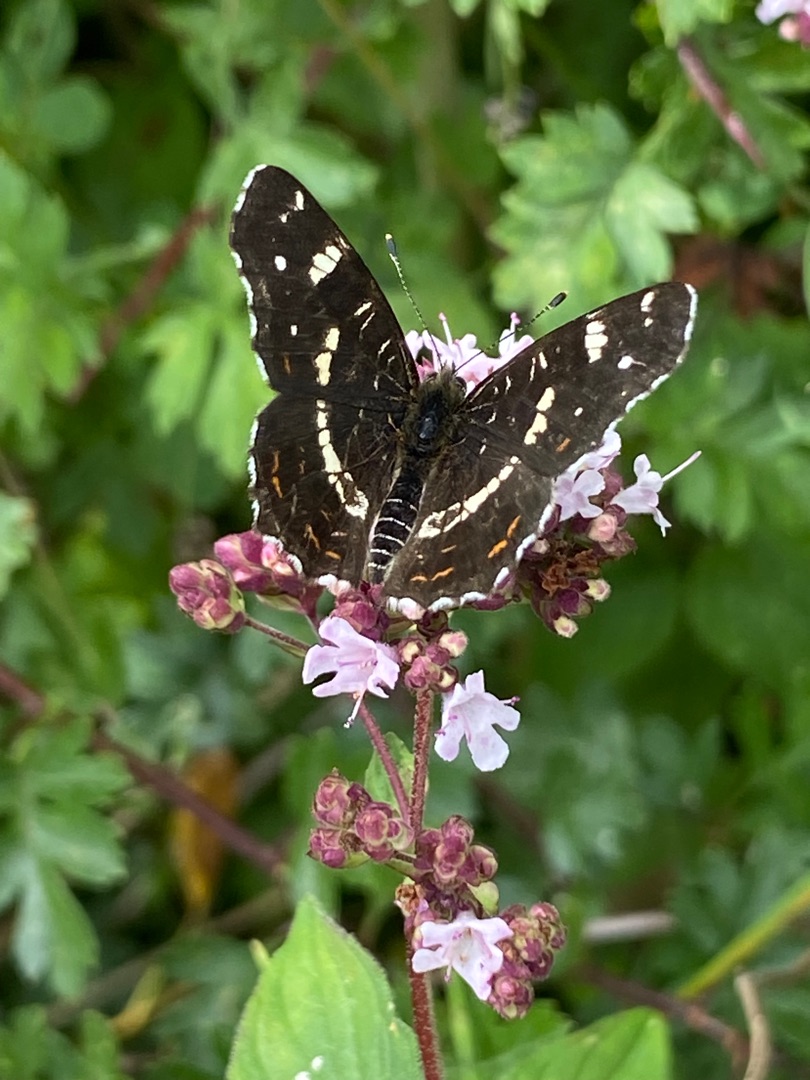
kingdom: Animalia
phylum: Arthropoda
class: Insecta
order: Lepidoptera
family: Nymphalidae
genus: Araschnia
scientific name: Araschnia levana
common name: Nældesommerfugl
